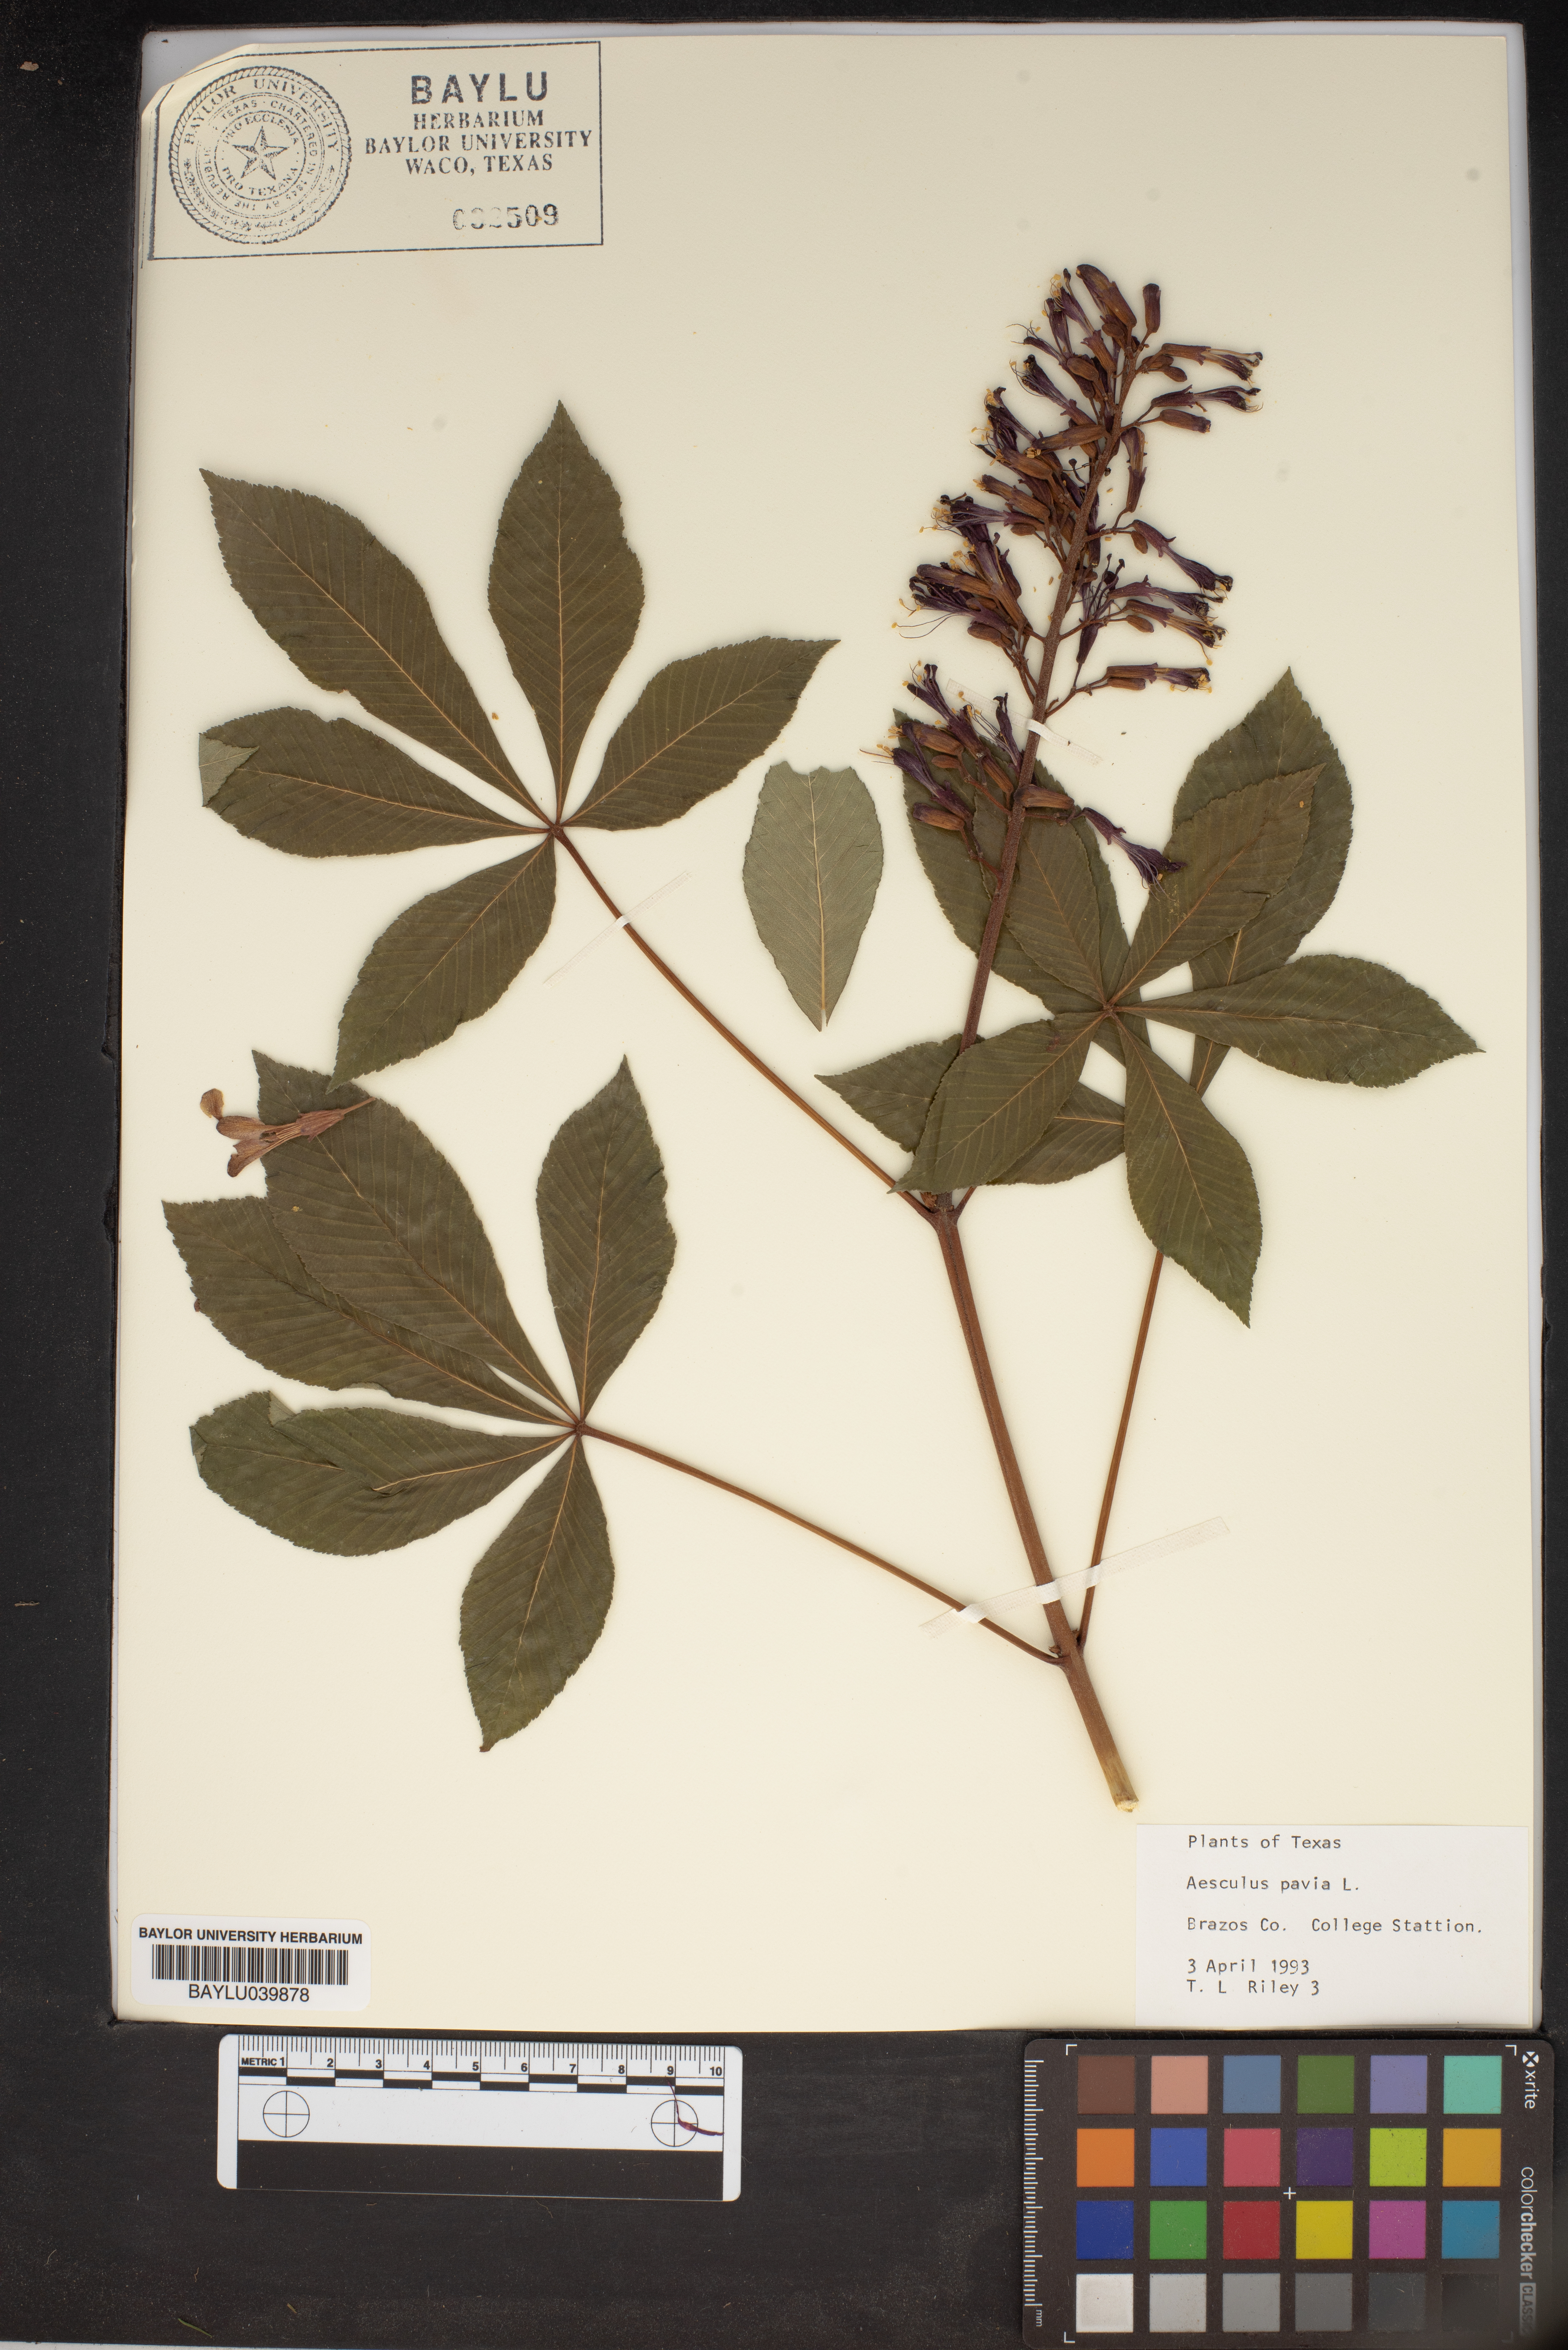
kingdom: Plantae
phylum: Tracheophyta
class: Magnoliopsida
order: Sapindales
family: Sapindaceae
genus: Aesculus
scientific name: Aesculus pavia
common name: Red buckeye
